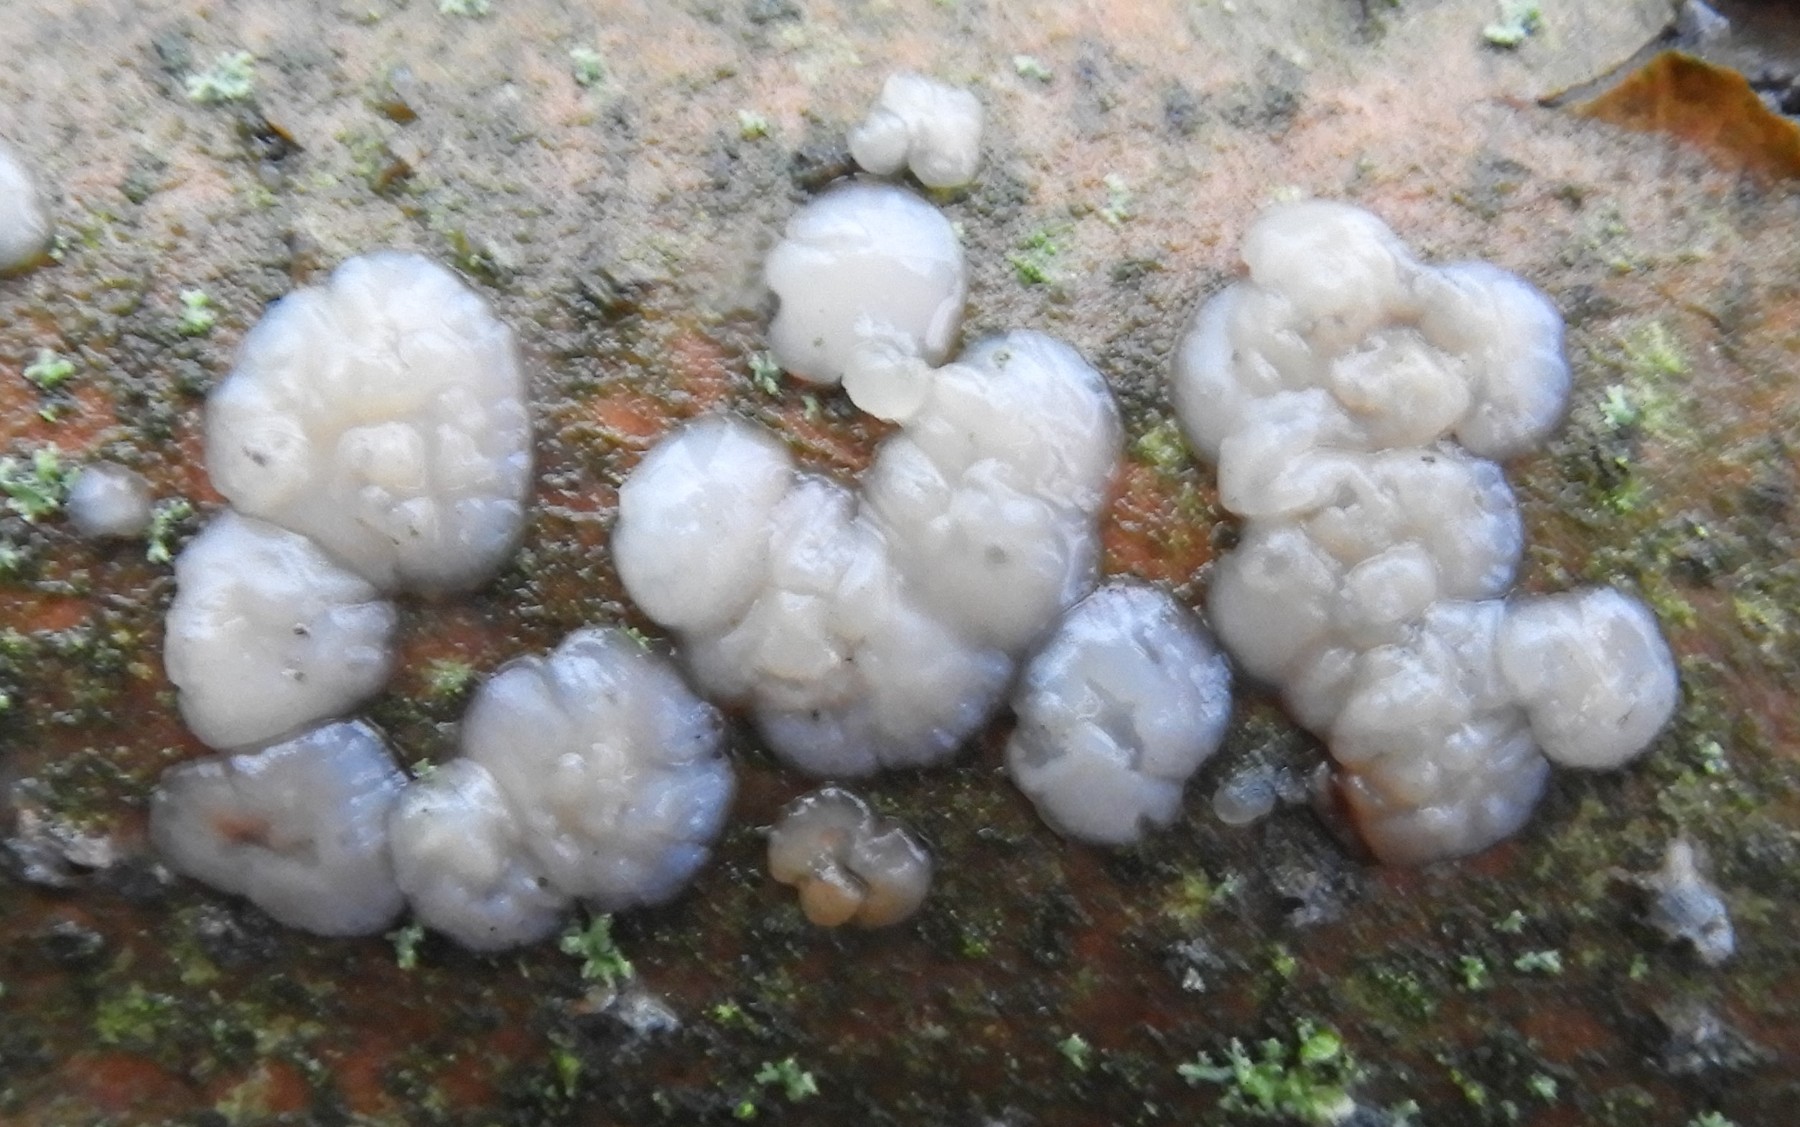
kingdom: Fungi
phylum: Basidiomycota
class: Agaricomycetes
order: Auriculariales
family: Auriculariaceae
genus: Exidia
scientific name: Exidia thuretiana
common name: hvidlig bævretop
